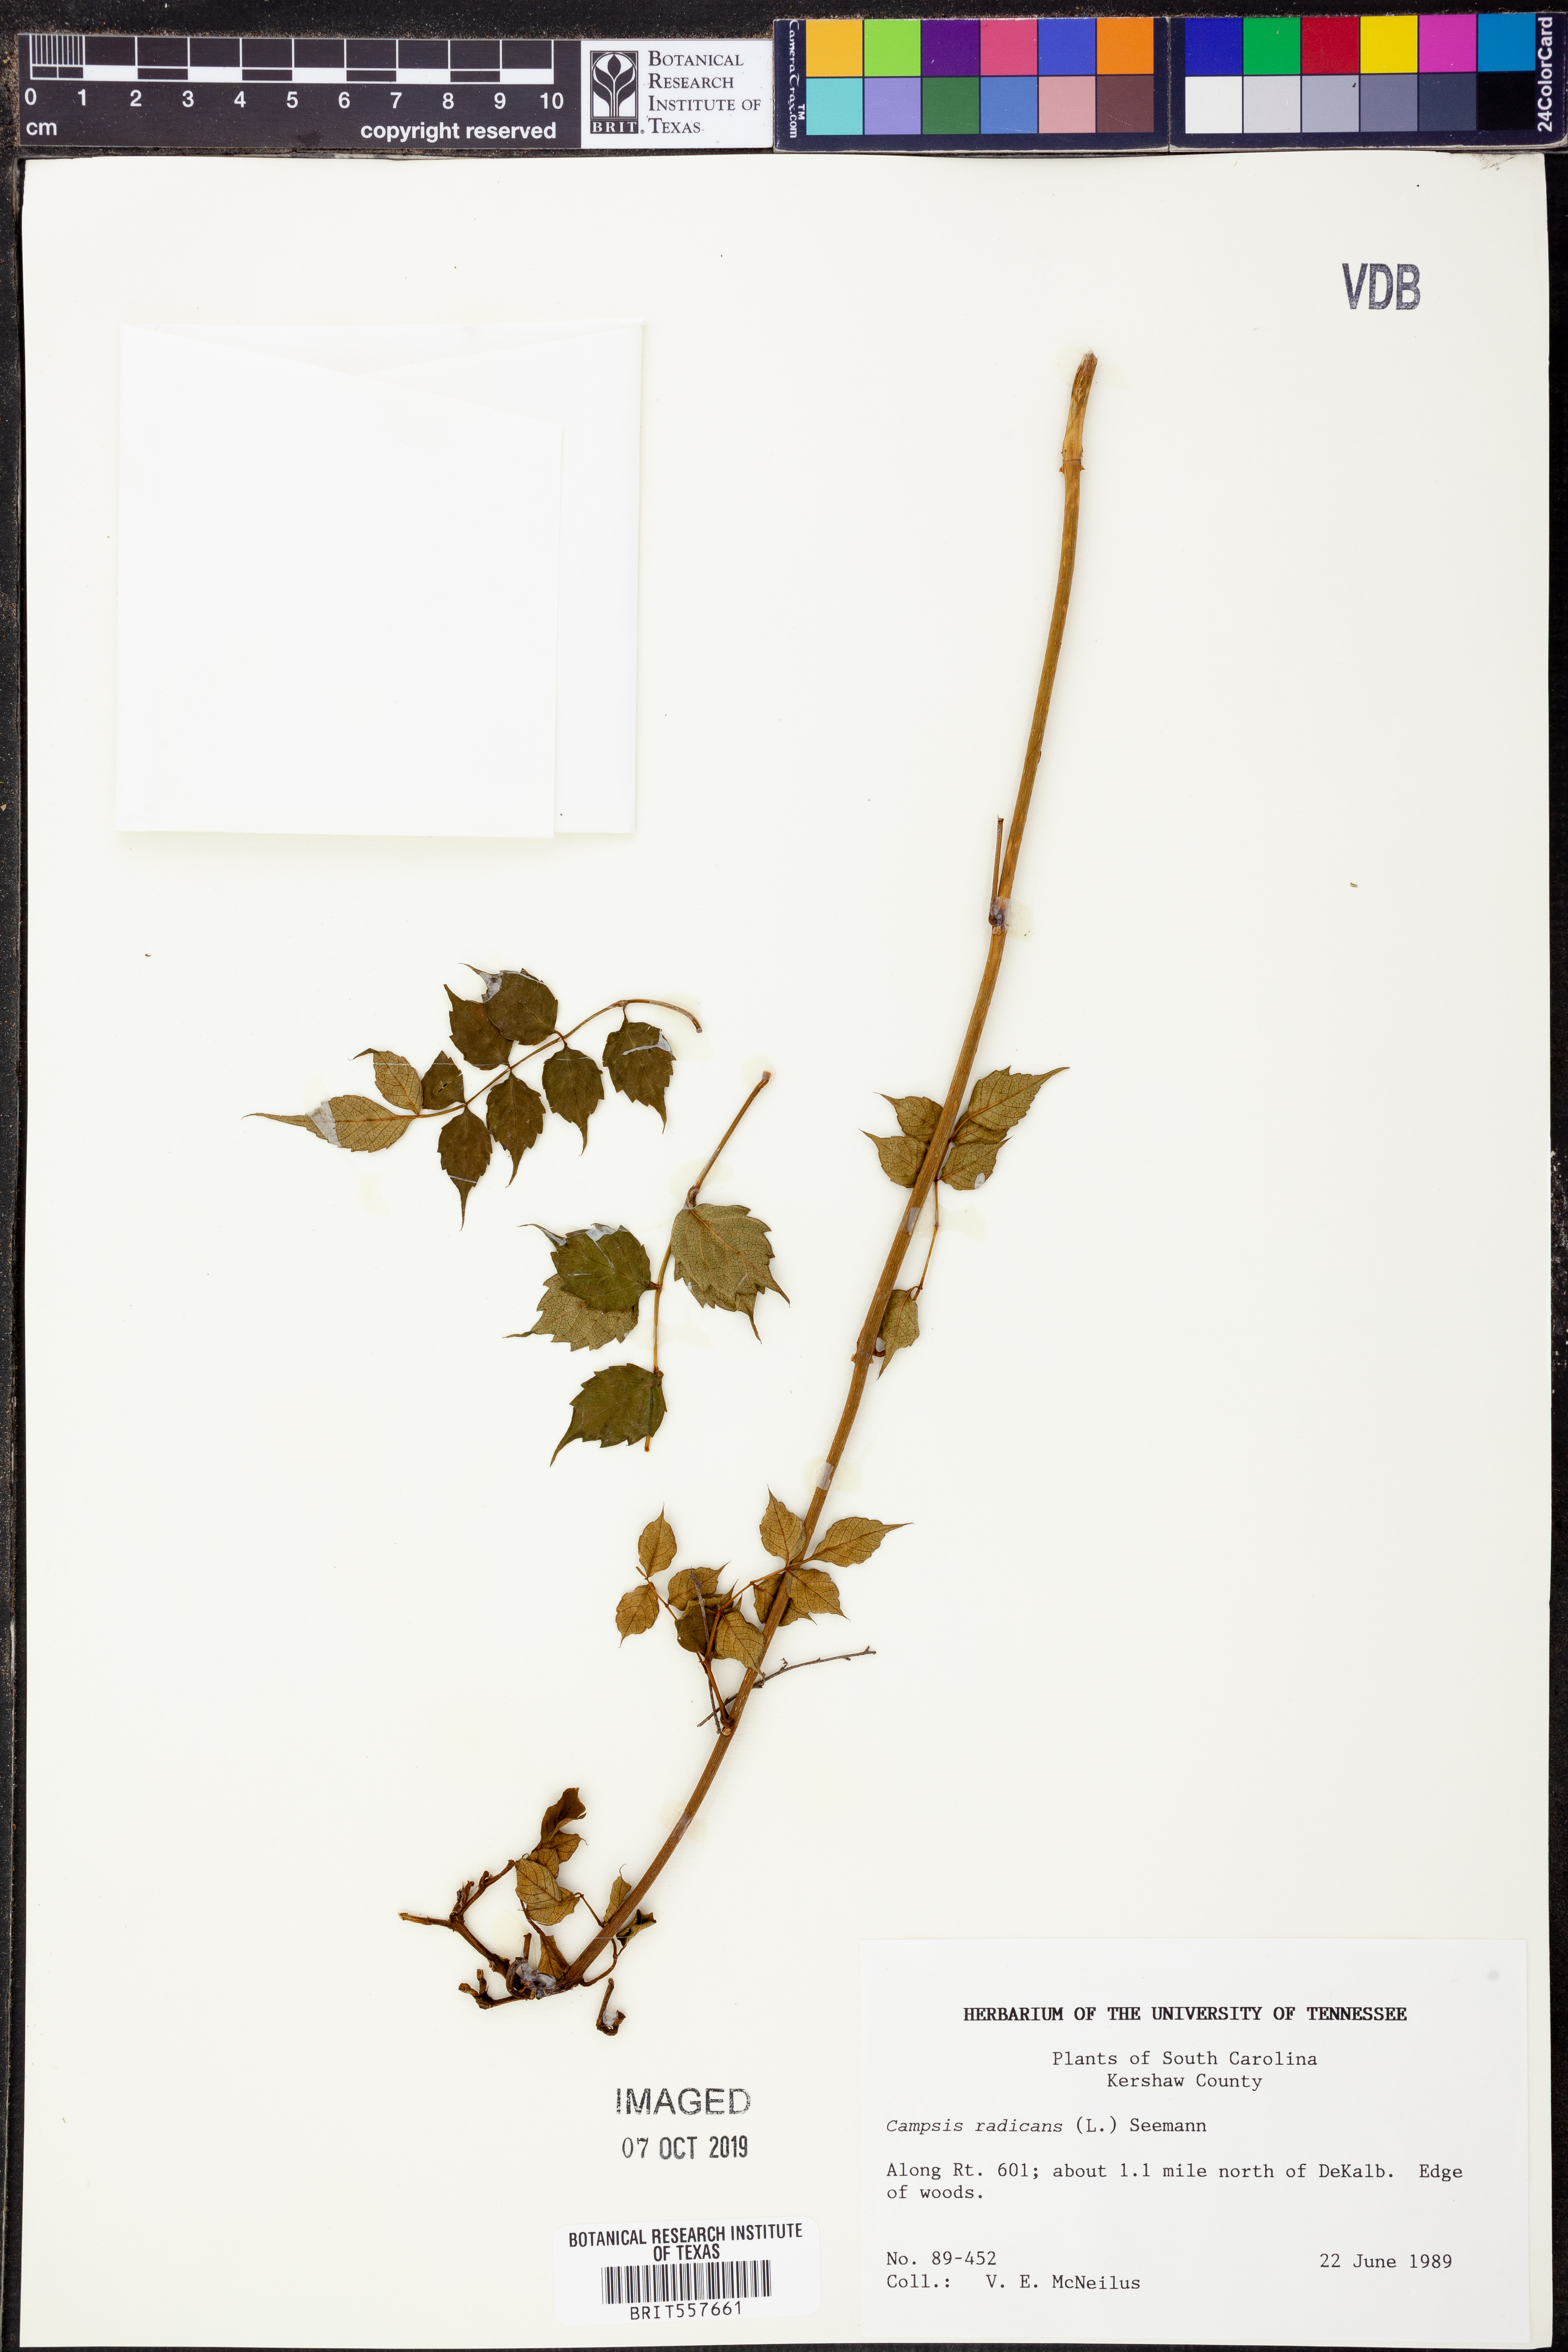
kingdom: Plantae
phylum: Tracheophyta
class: Magnoliopsida
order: Lamiales
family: Bignoniaceae
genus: Campsis
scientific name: Campsis radicans
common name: Trumpet-creeper
